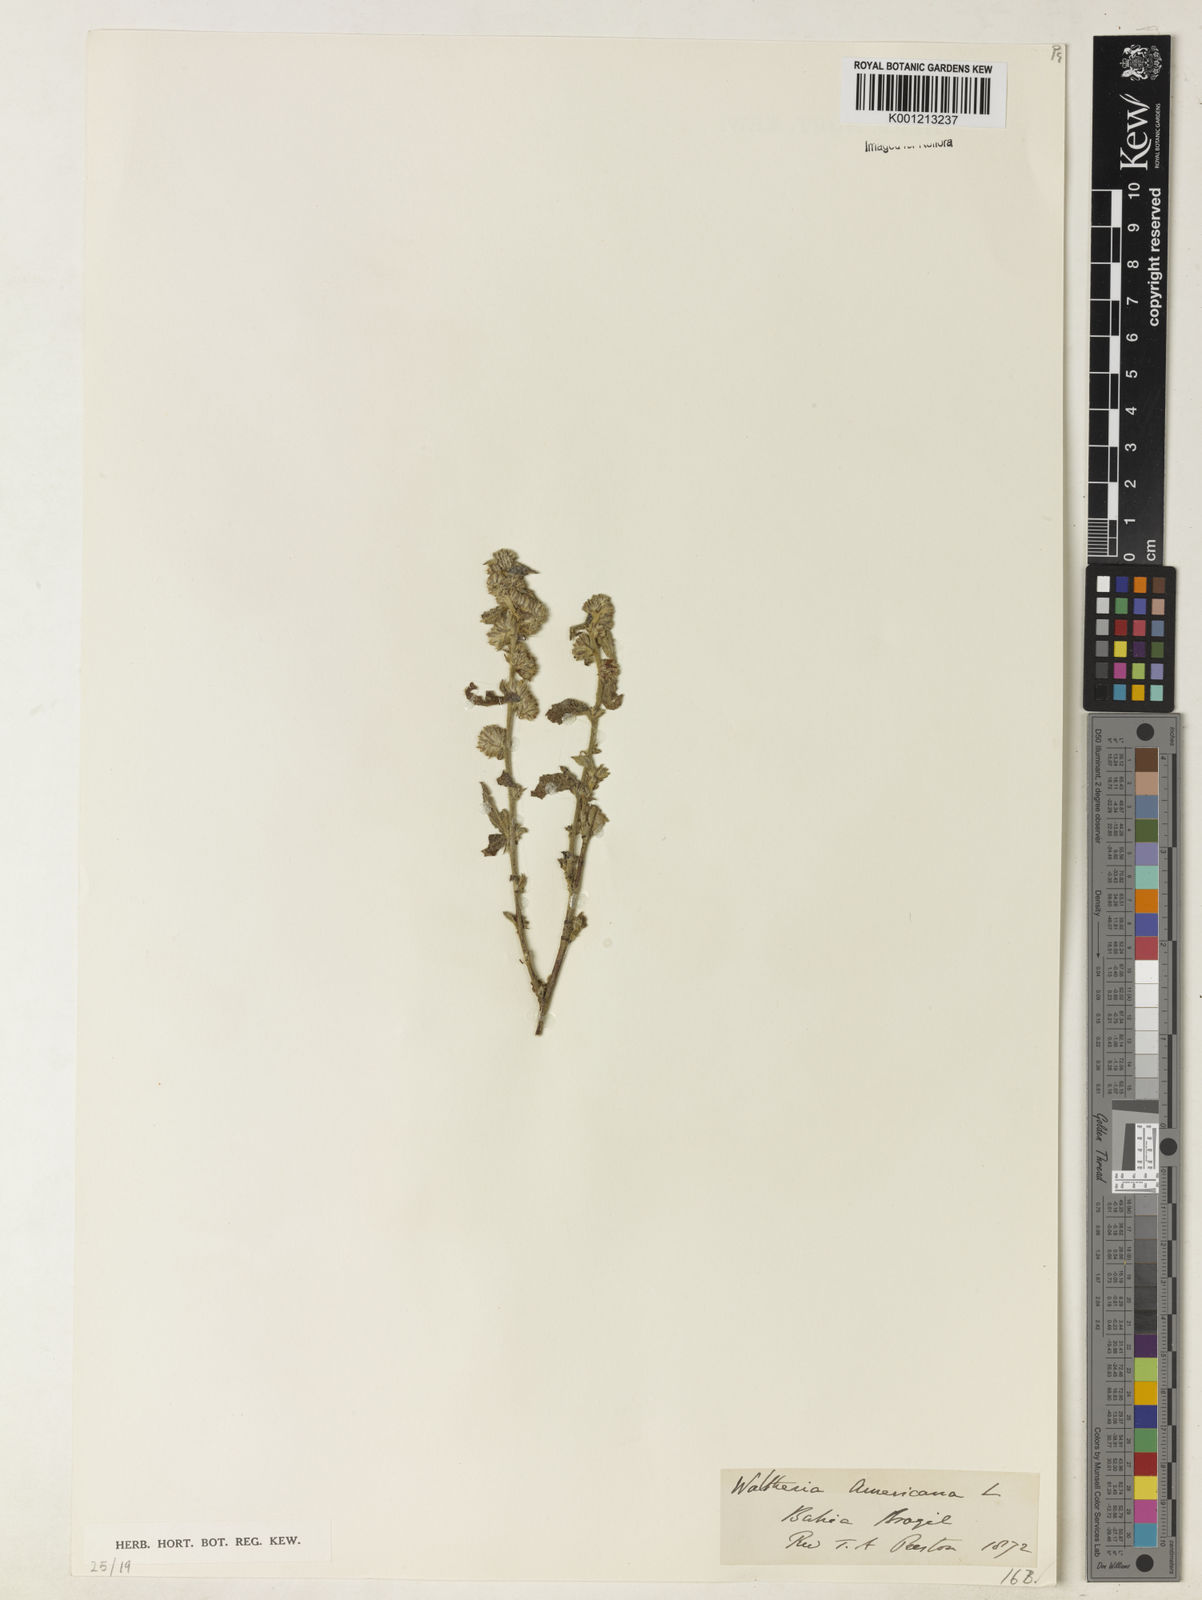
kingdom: Plantae
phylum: Tracheophyta
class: Magnoliopsida
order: Malvales
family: Malvaceae
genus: Waltheria
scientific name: Waltheria indica
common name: Leather-coat
